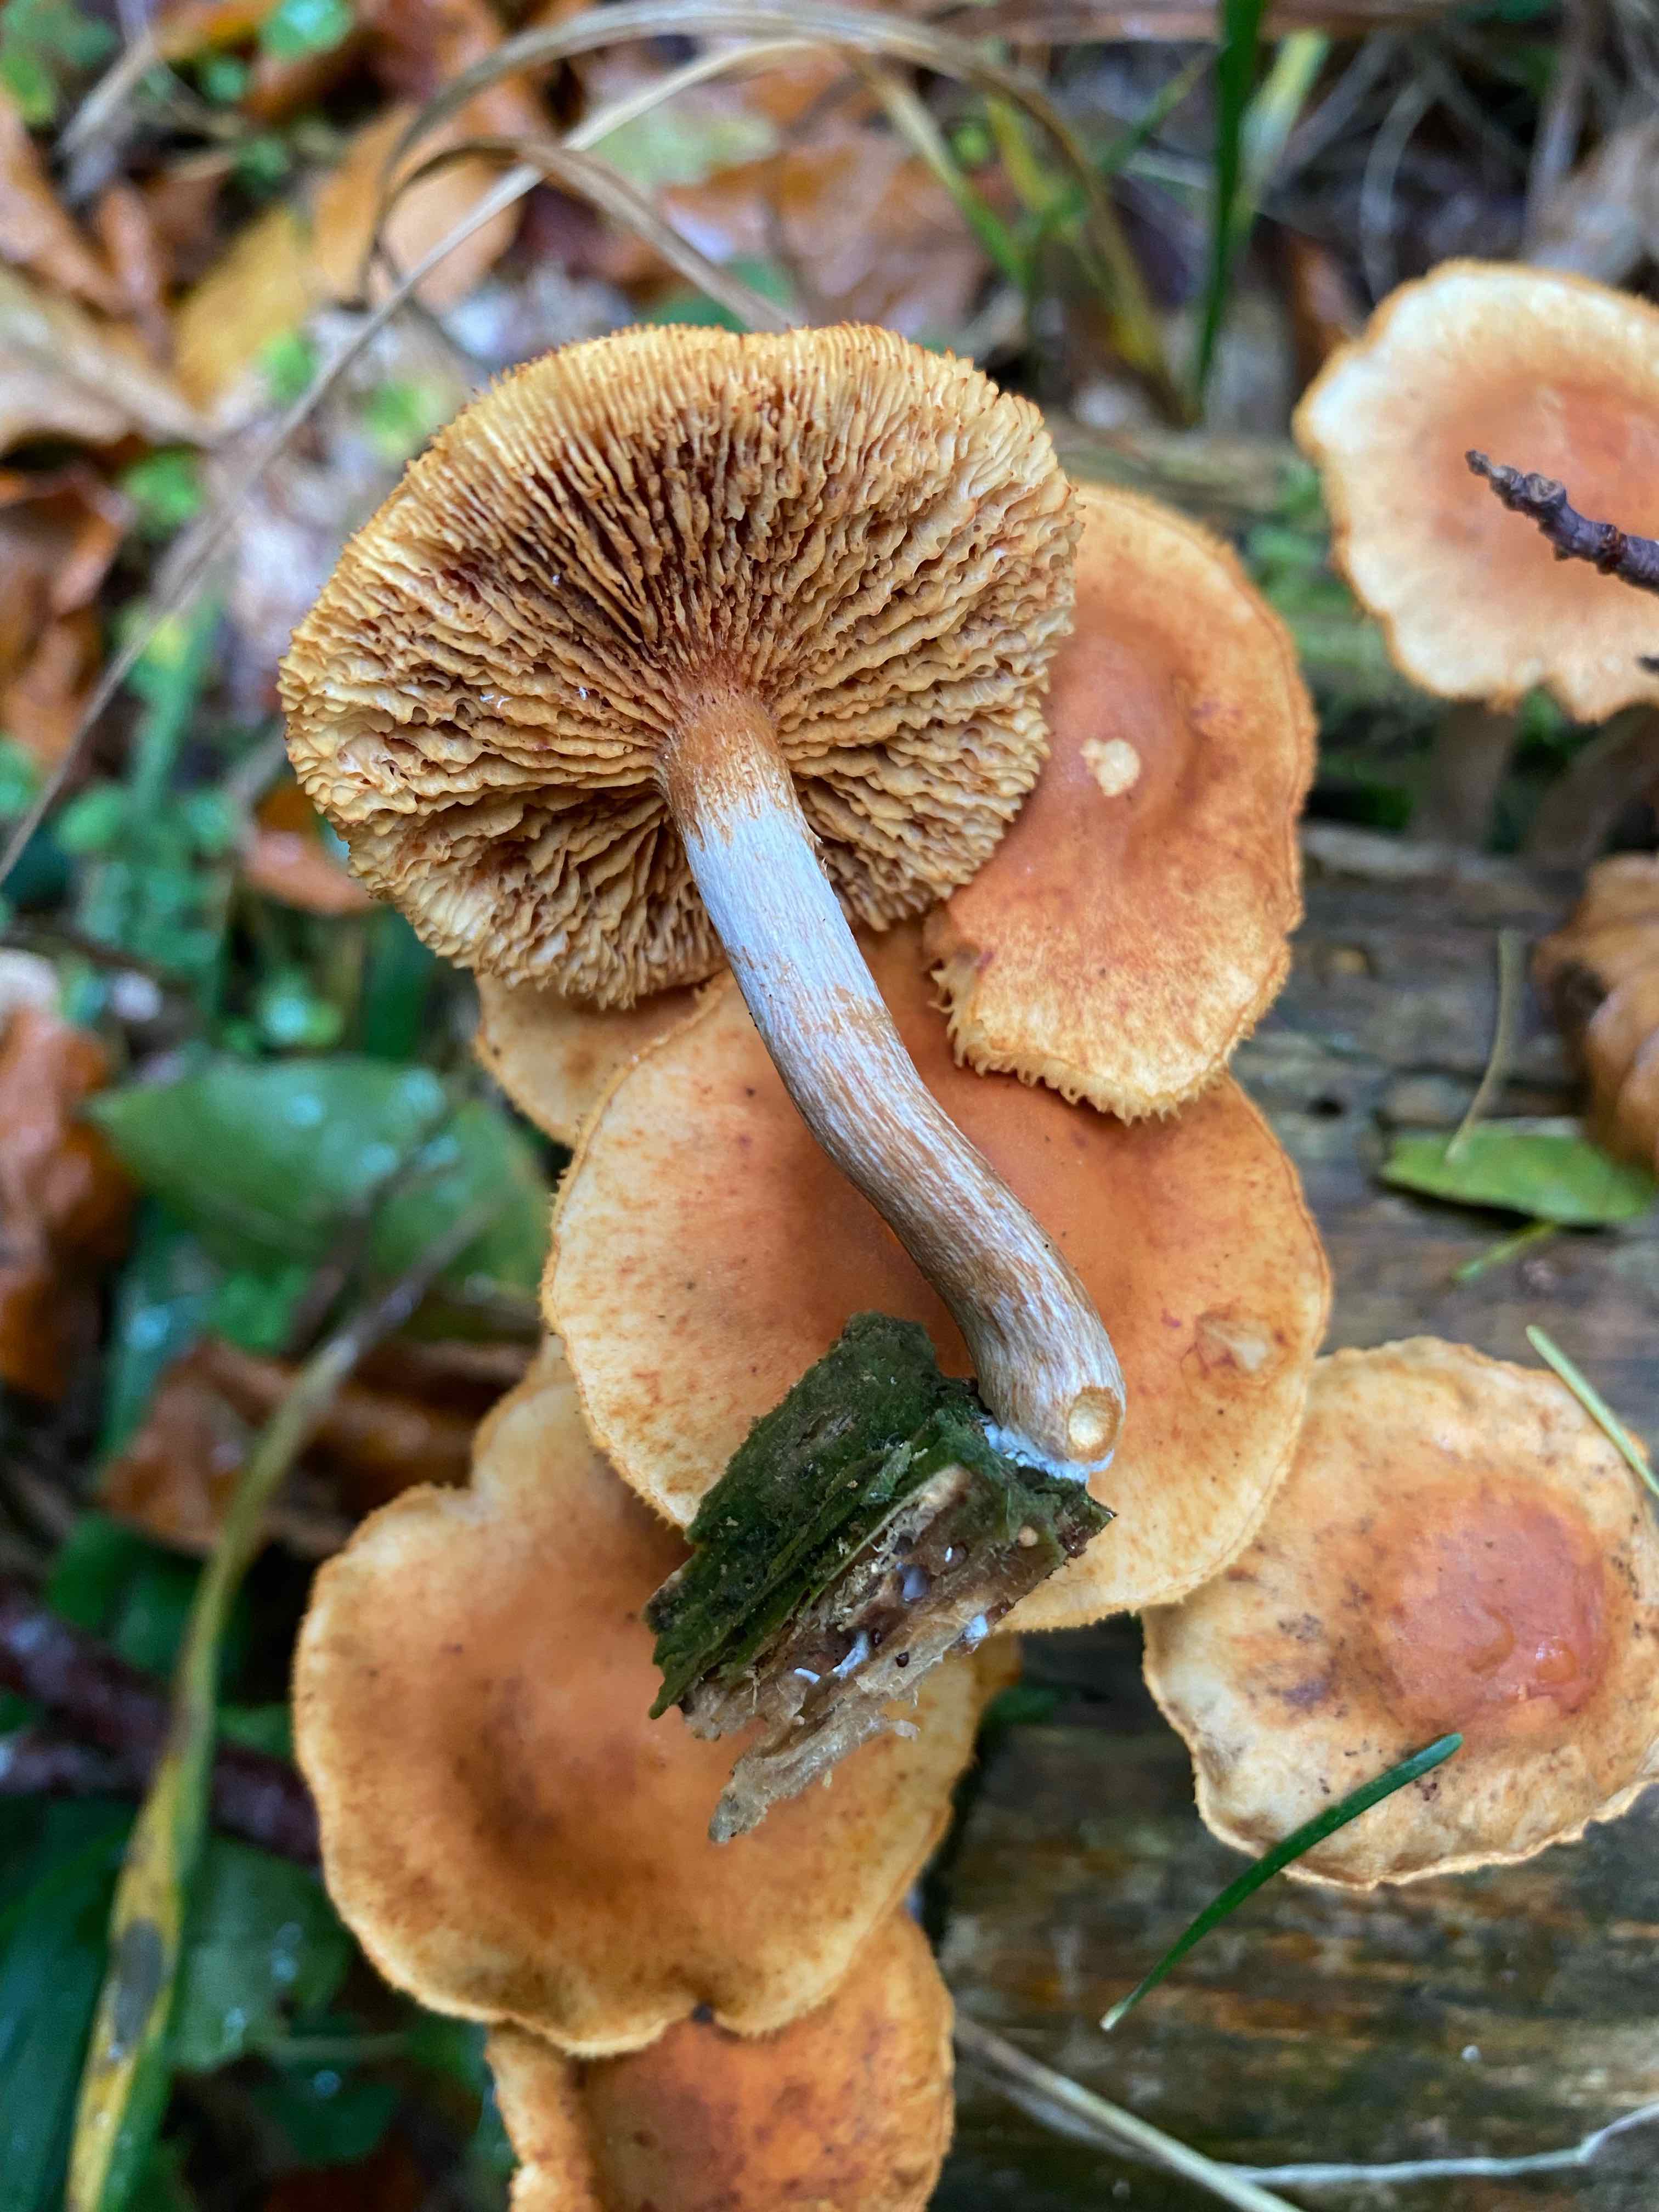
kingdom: Fungi
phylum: Basidiomycota
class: Agaricomycetes
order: Agaricales
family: Hymenogastraceae
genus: Gymnopilus
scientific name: Gymnopilus penetrans
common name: plettet flammehat
